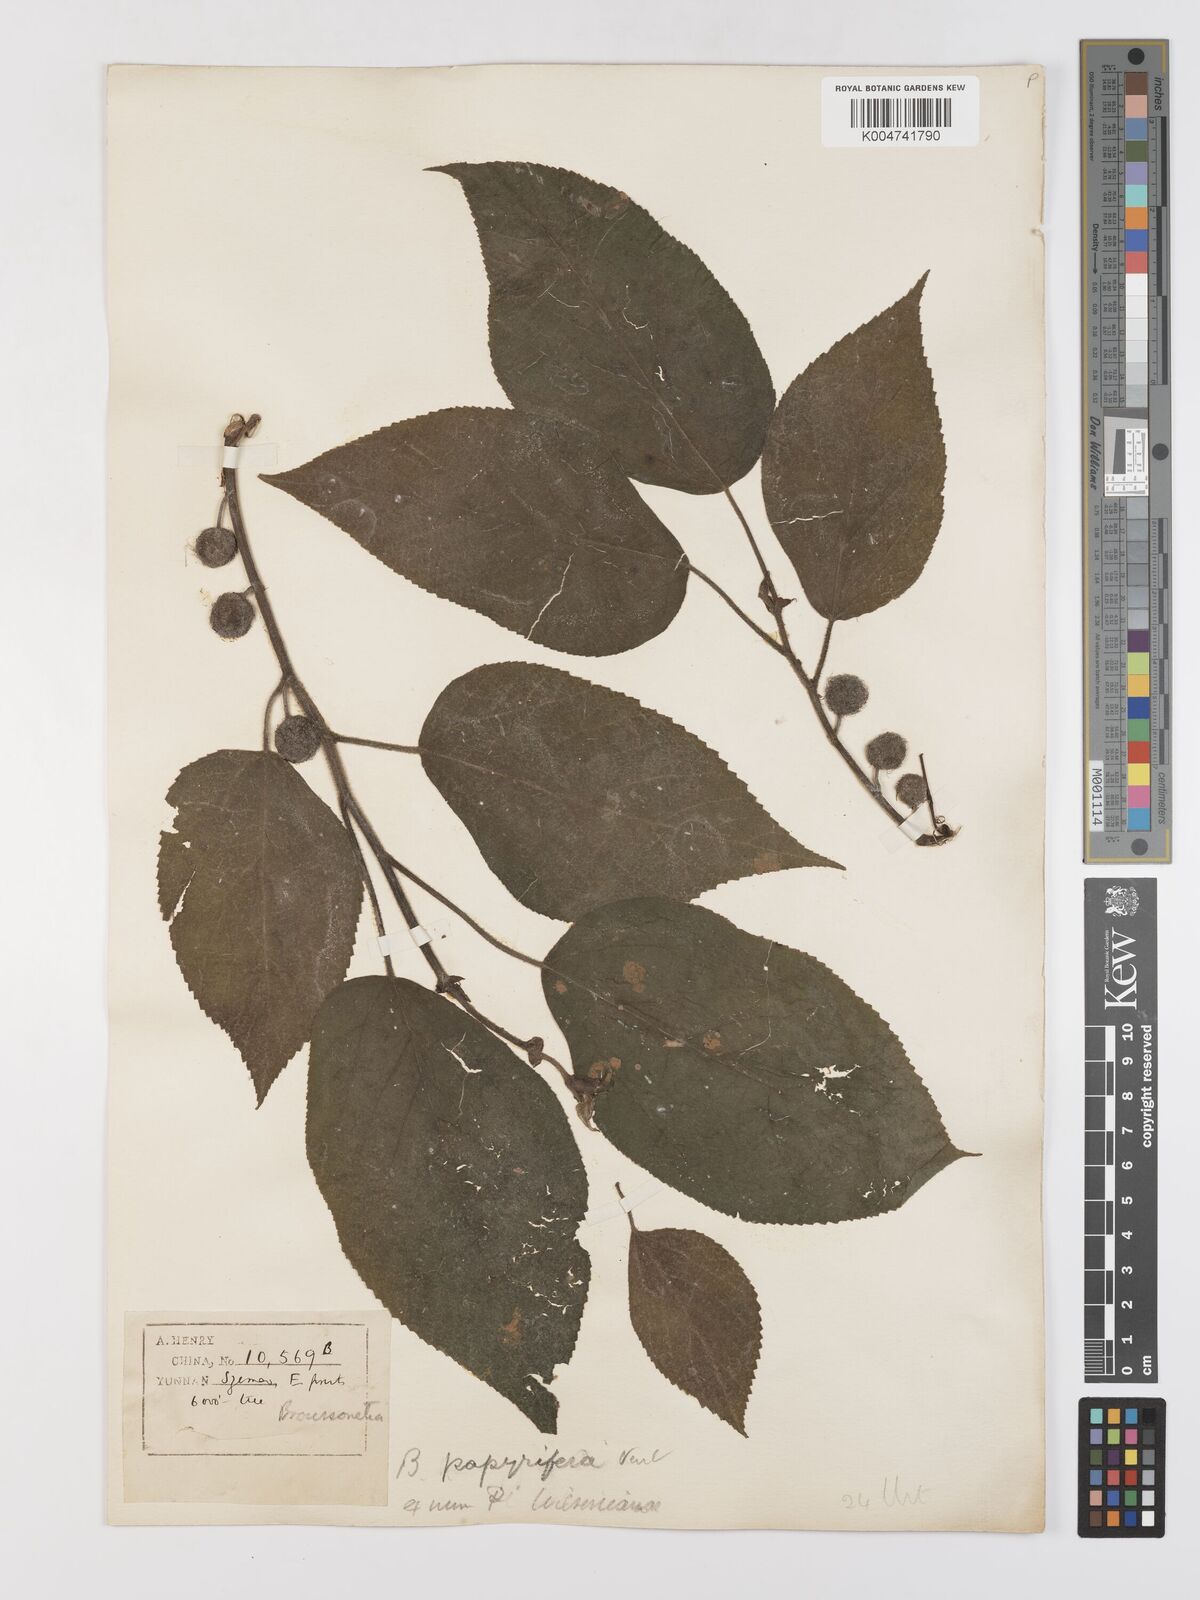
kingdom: Plantae
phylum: Tracheophyta
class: Magnoliopsida
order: Rosales
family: Moraceae
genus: Broussonetia
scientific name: Broussonetia papyrifera
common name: Paper mulberry
